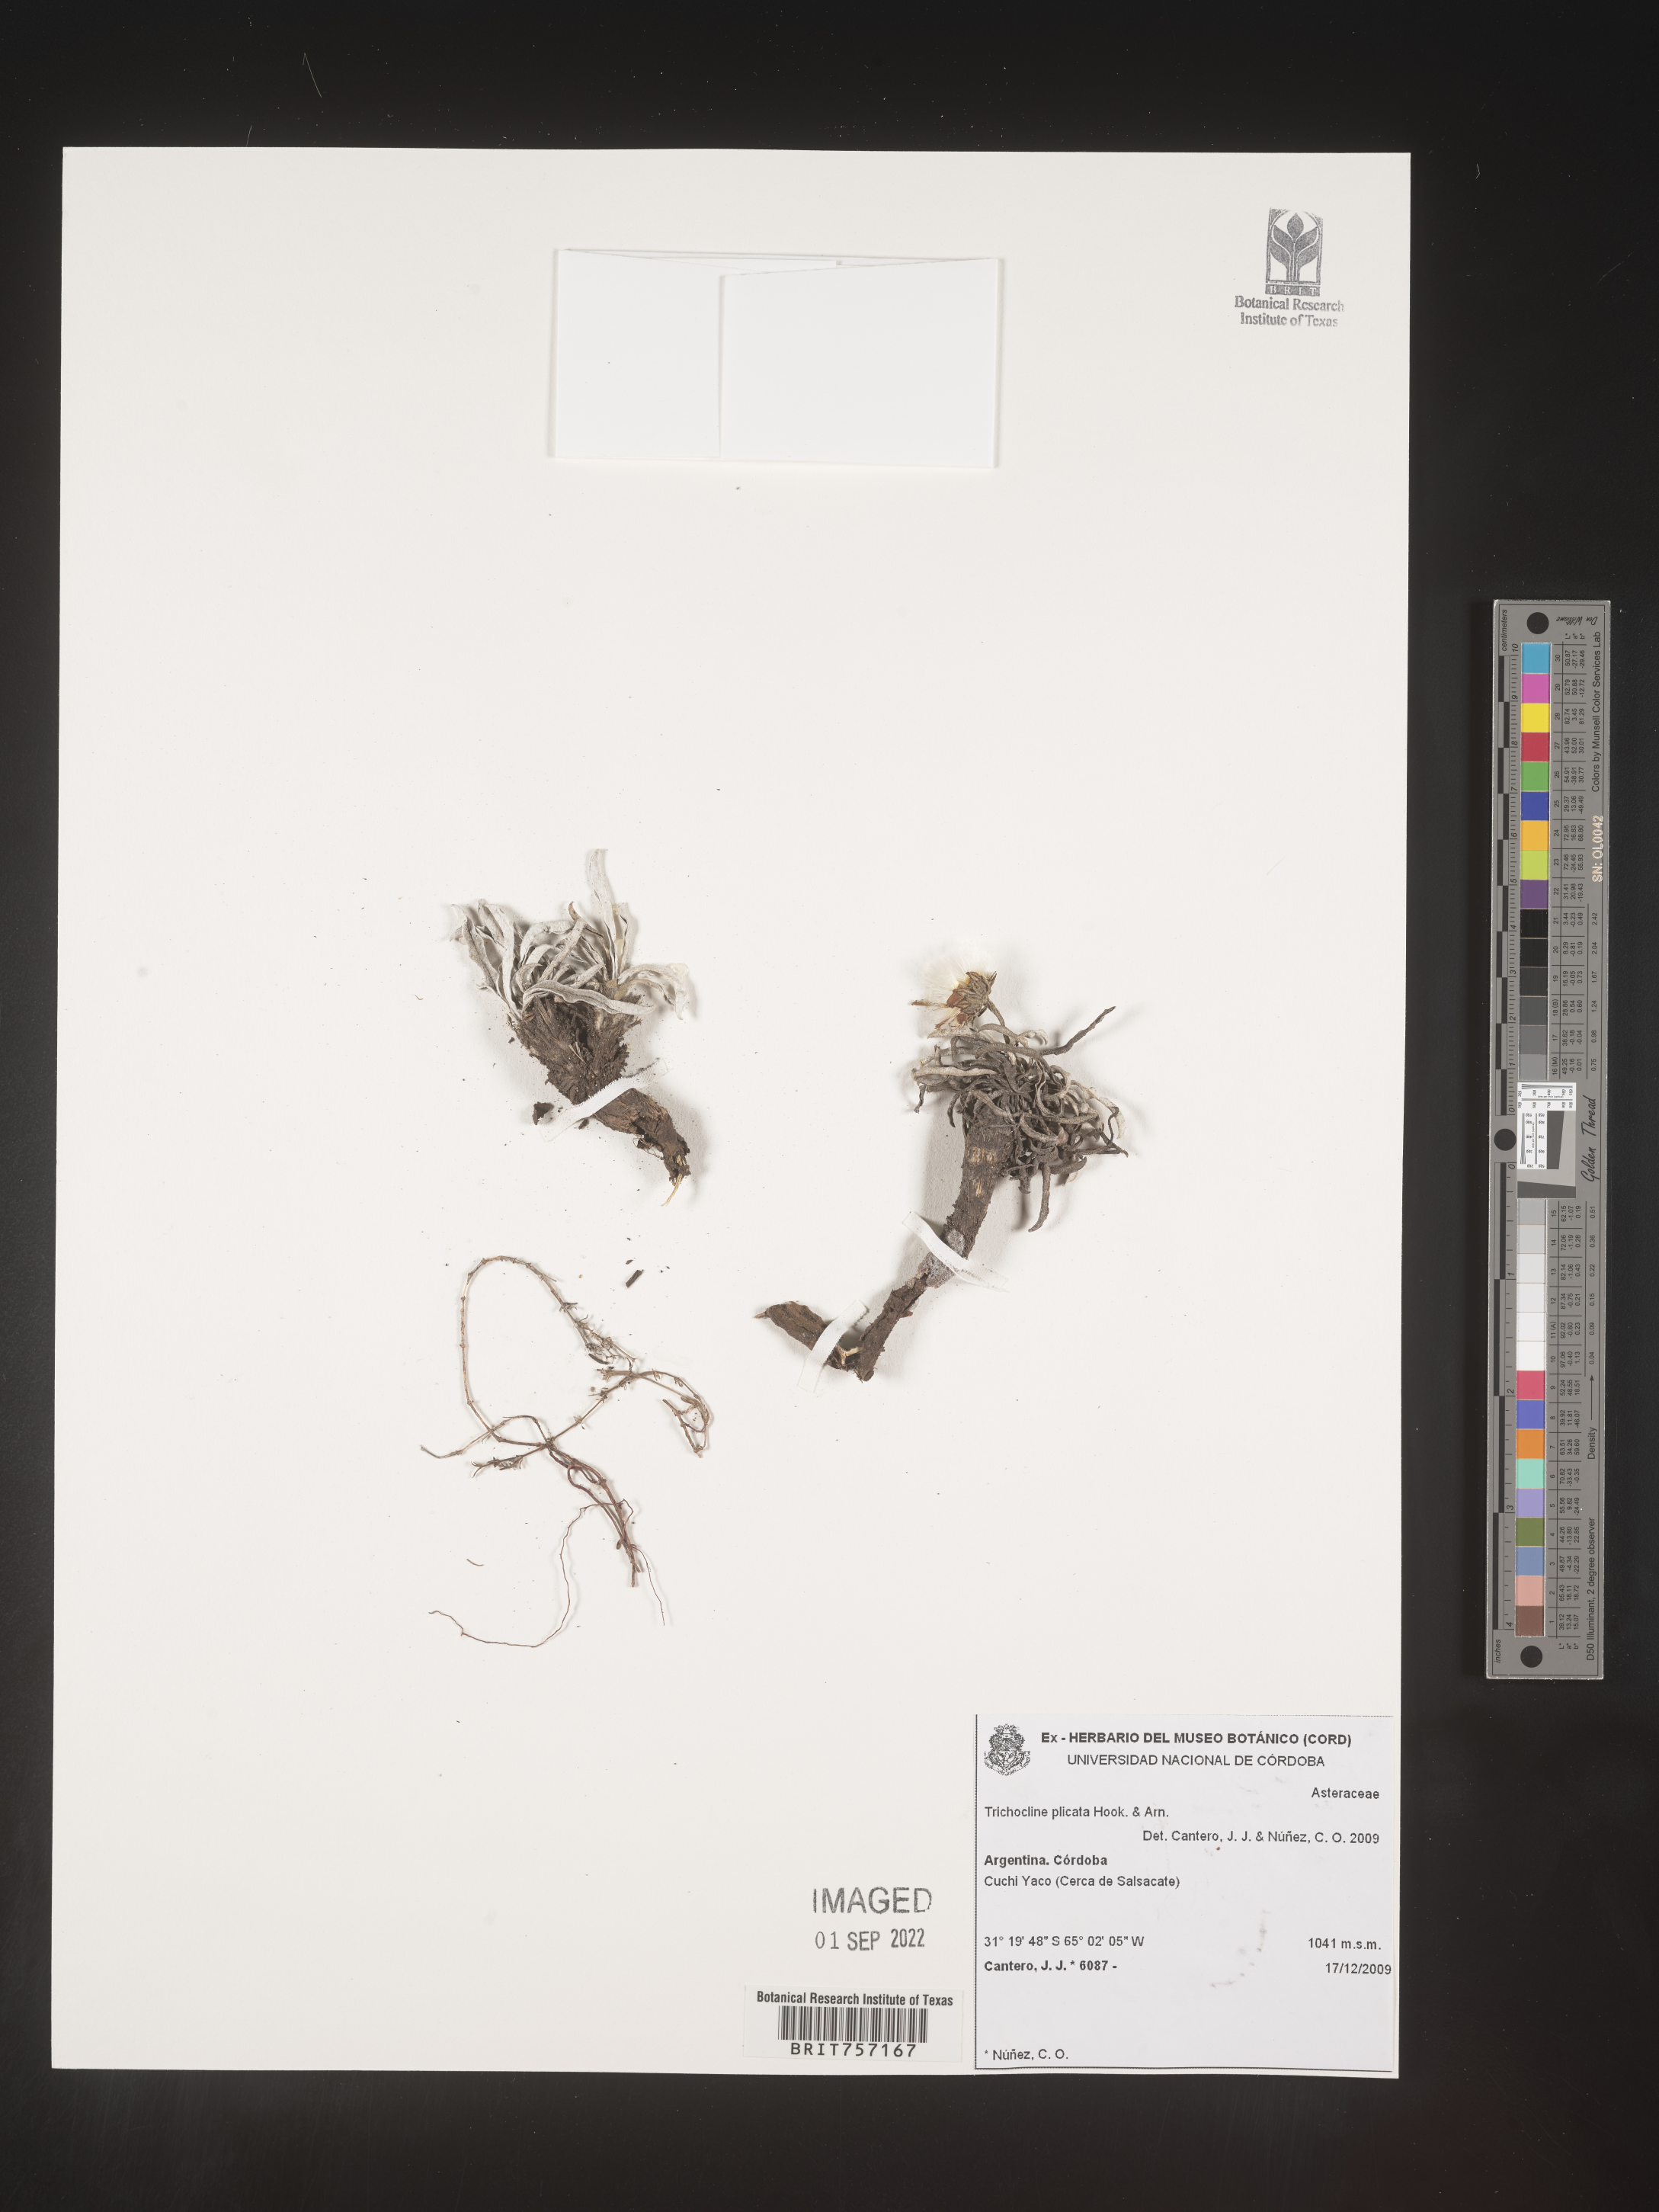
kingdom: Plantae
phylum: Tracheophyta
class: Magnoliopsida
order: Asterales
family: Asteraceae
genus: Trichocline
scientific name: Trichocline
